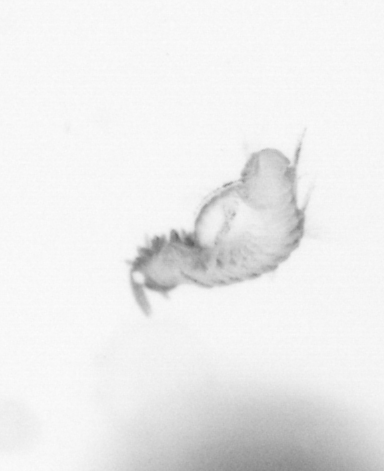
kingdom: Animalia
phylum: Annelida
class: Polychaeta
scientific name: Polychaeta
